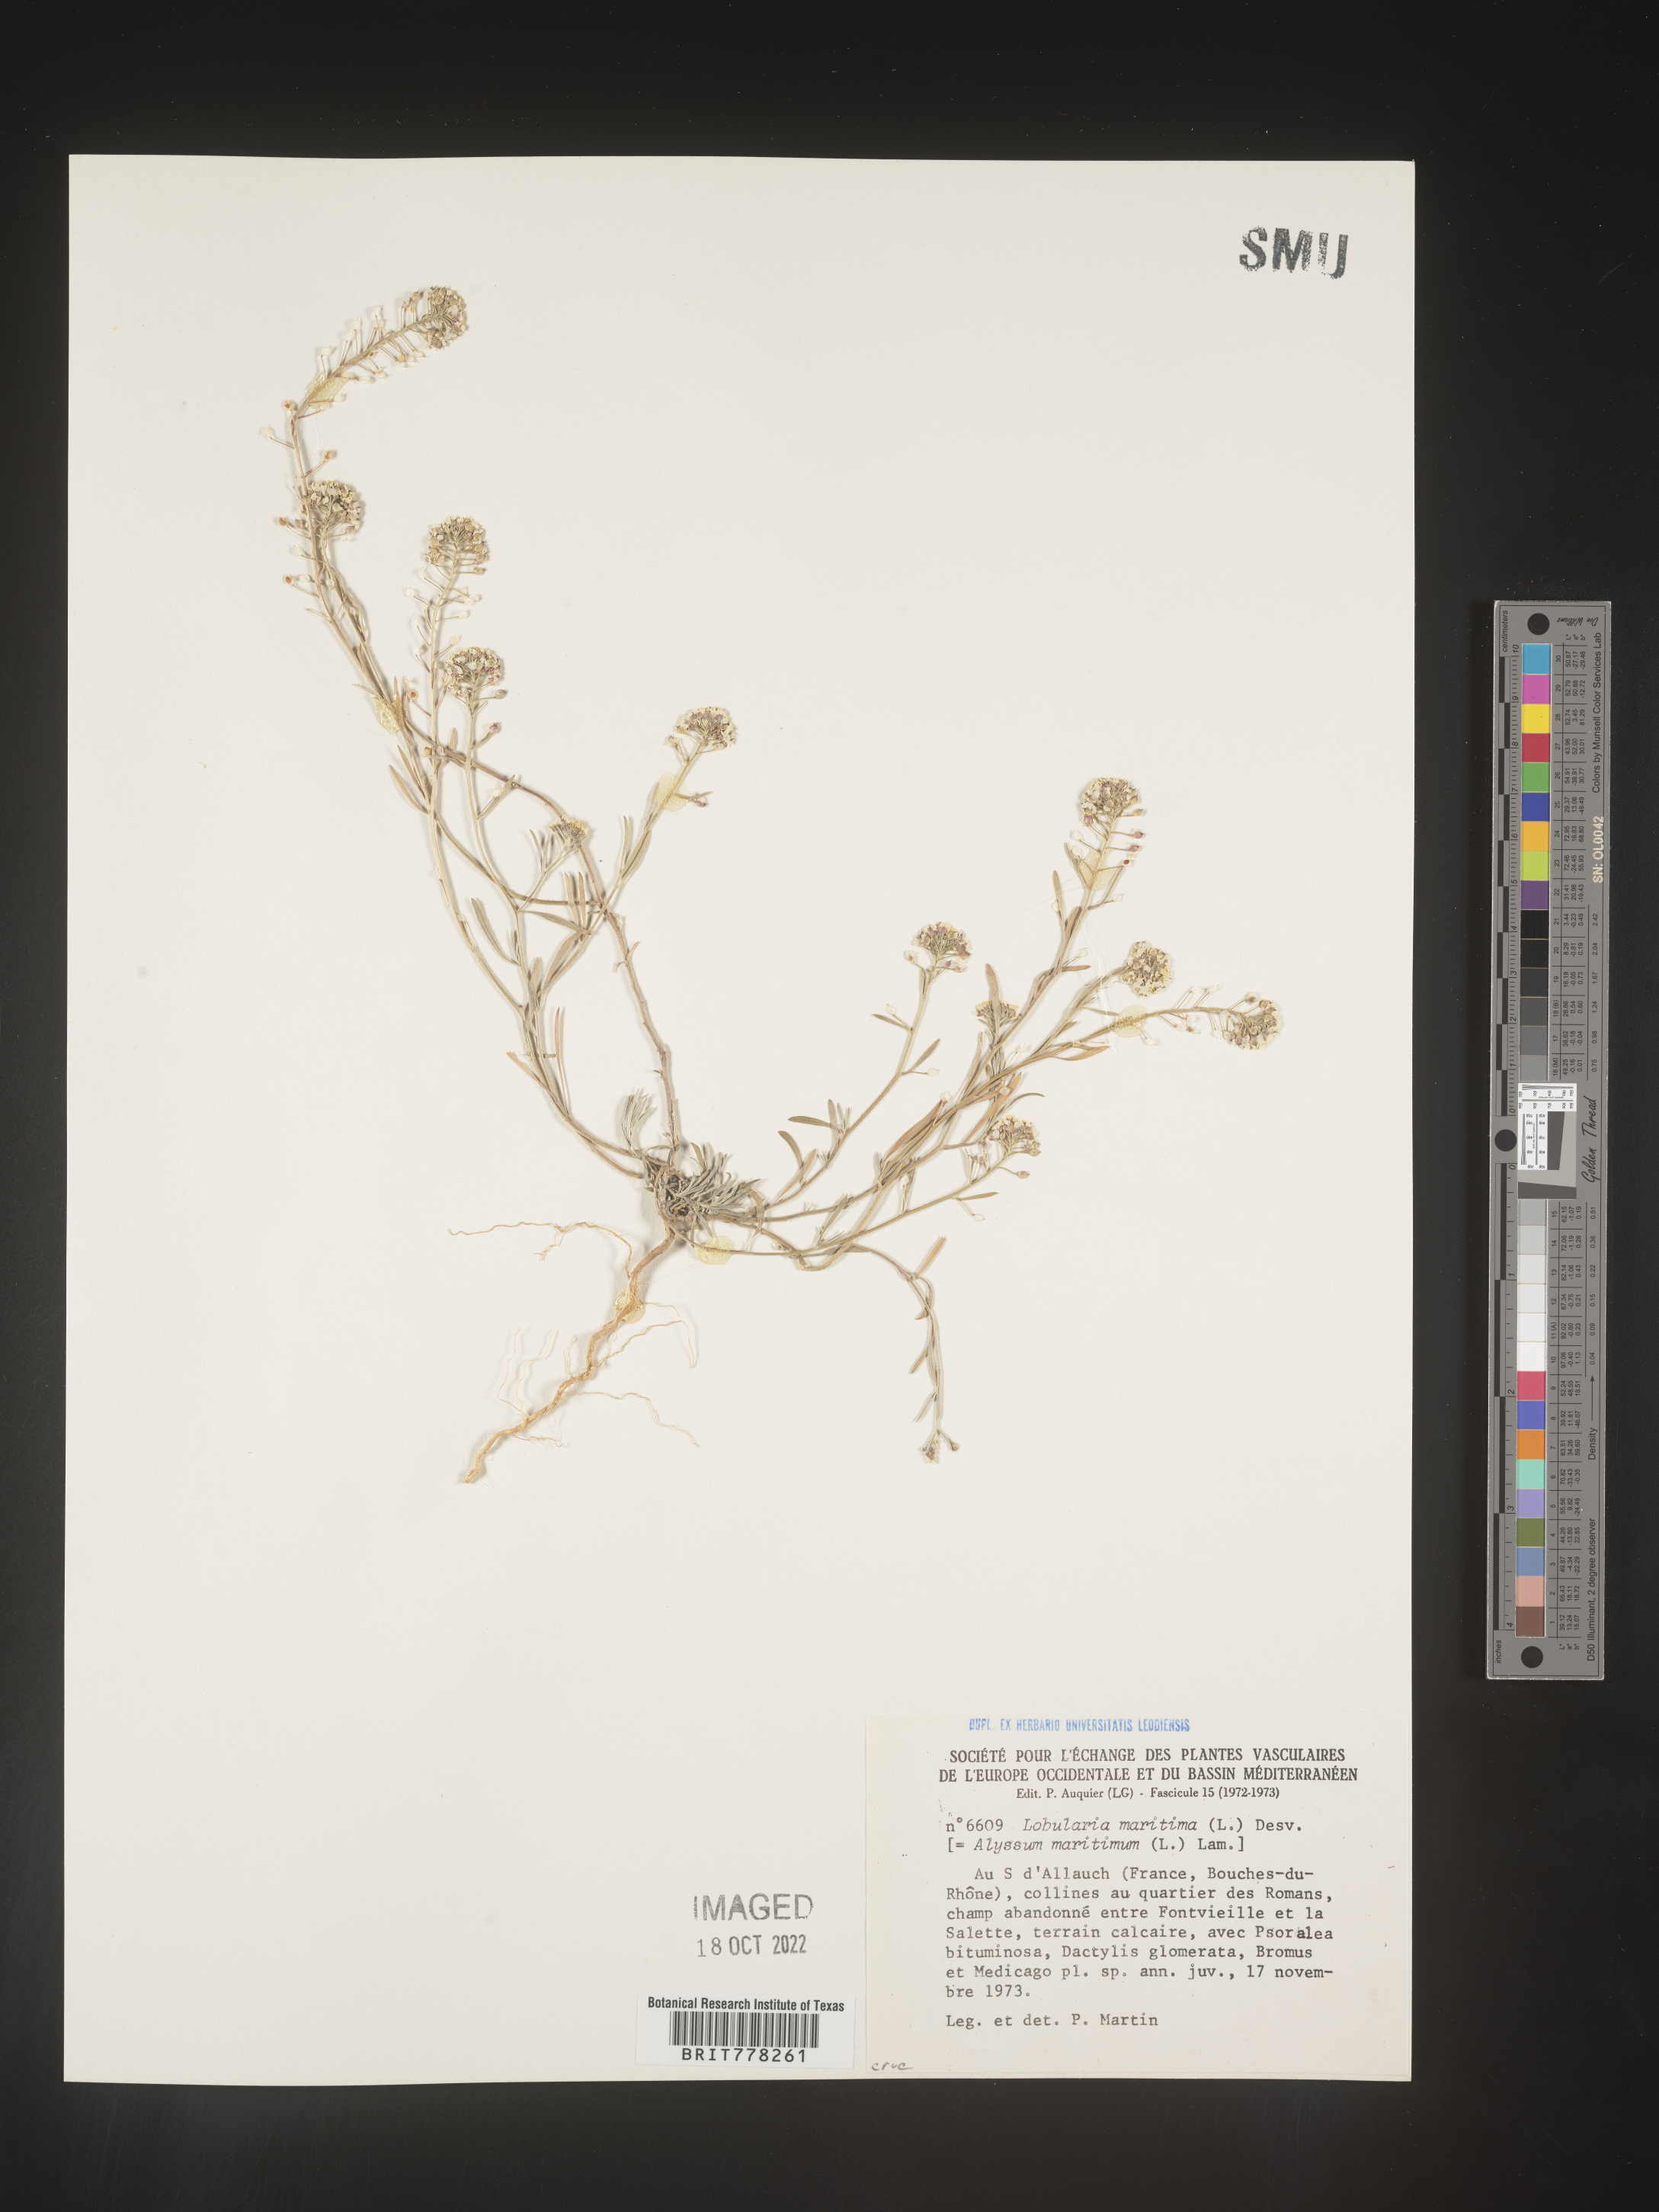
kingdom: Plantae
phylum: Tracheophyta
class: Magnoliopsida
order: Brassicales
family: Brassicaceae
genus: Lobularia
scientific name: Lobularia
